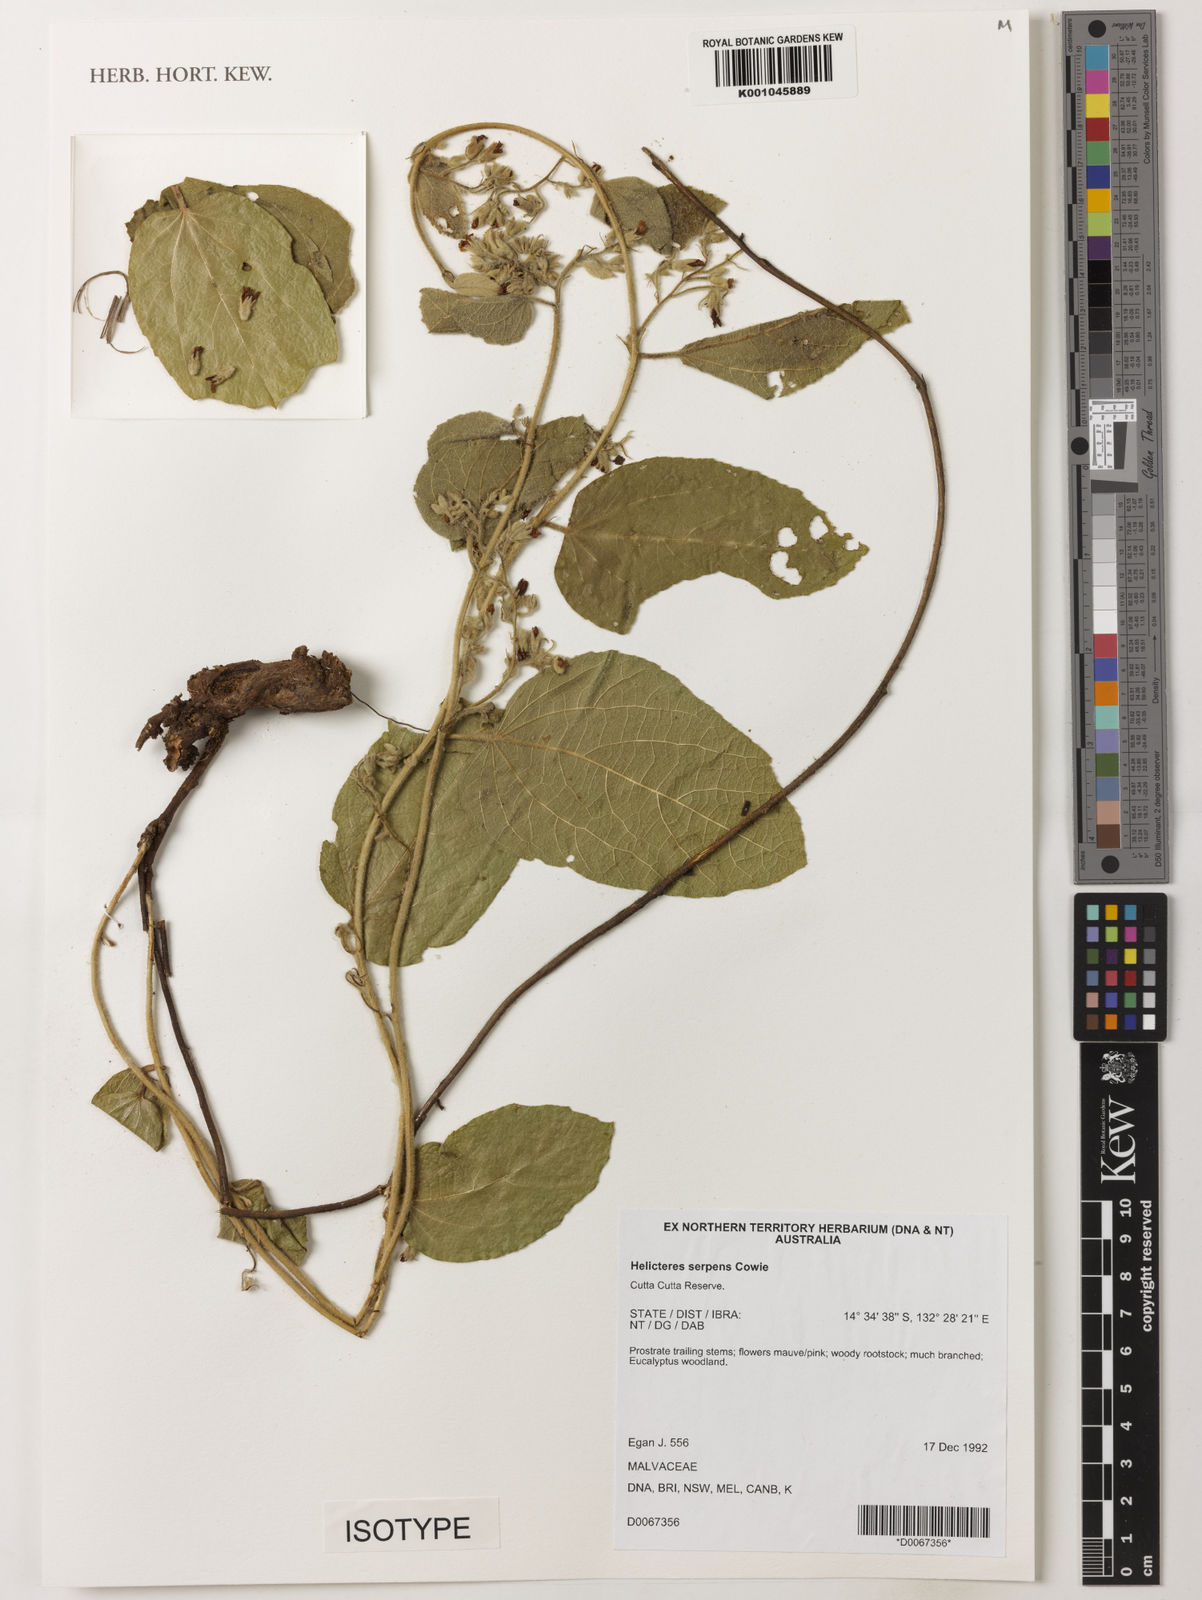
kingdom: Plantae
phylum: Tracheophyta
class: Magnoliopsida
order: Malvales
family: Malvaceae
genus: Helicteres
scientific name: Helicteres serpens
